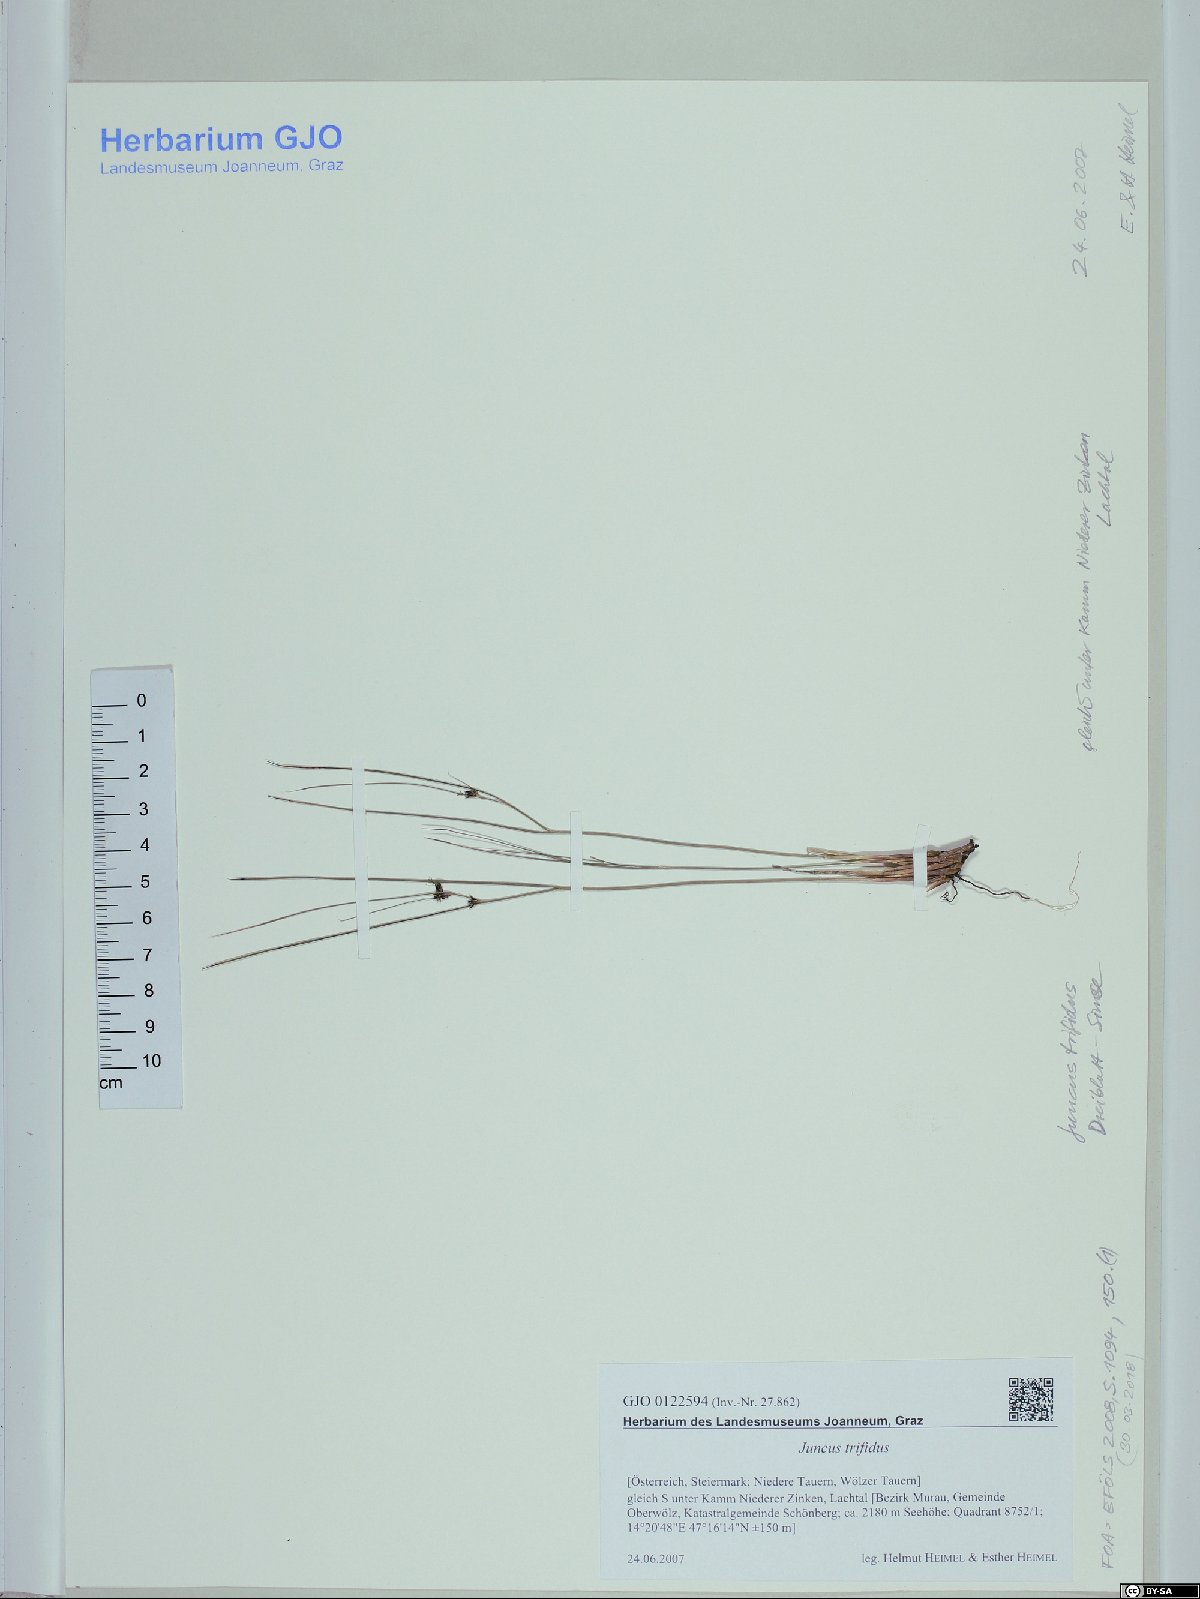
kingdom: Plantae
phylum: Tracheophyta
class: Liliopsida
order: Poales
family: Juncaceae
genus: Oreojuncus
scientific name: Oreojuncus trifidus
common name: Highland rush
